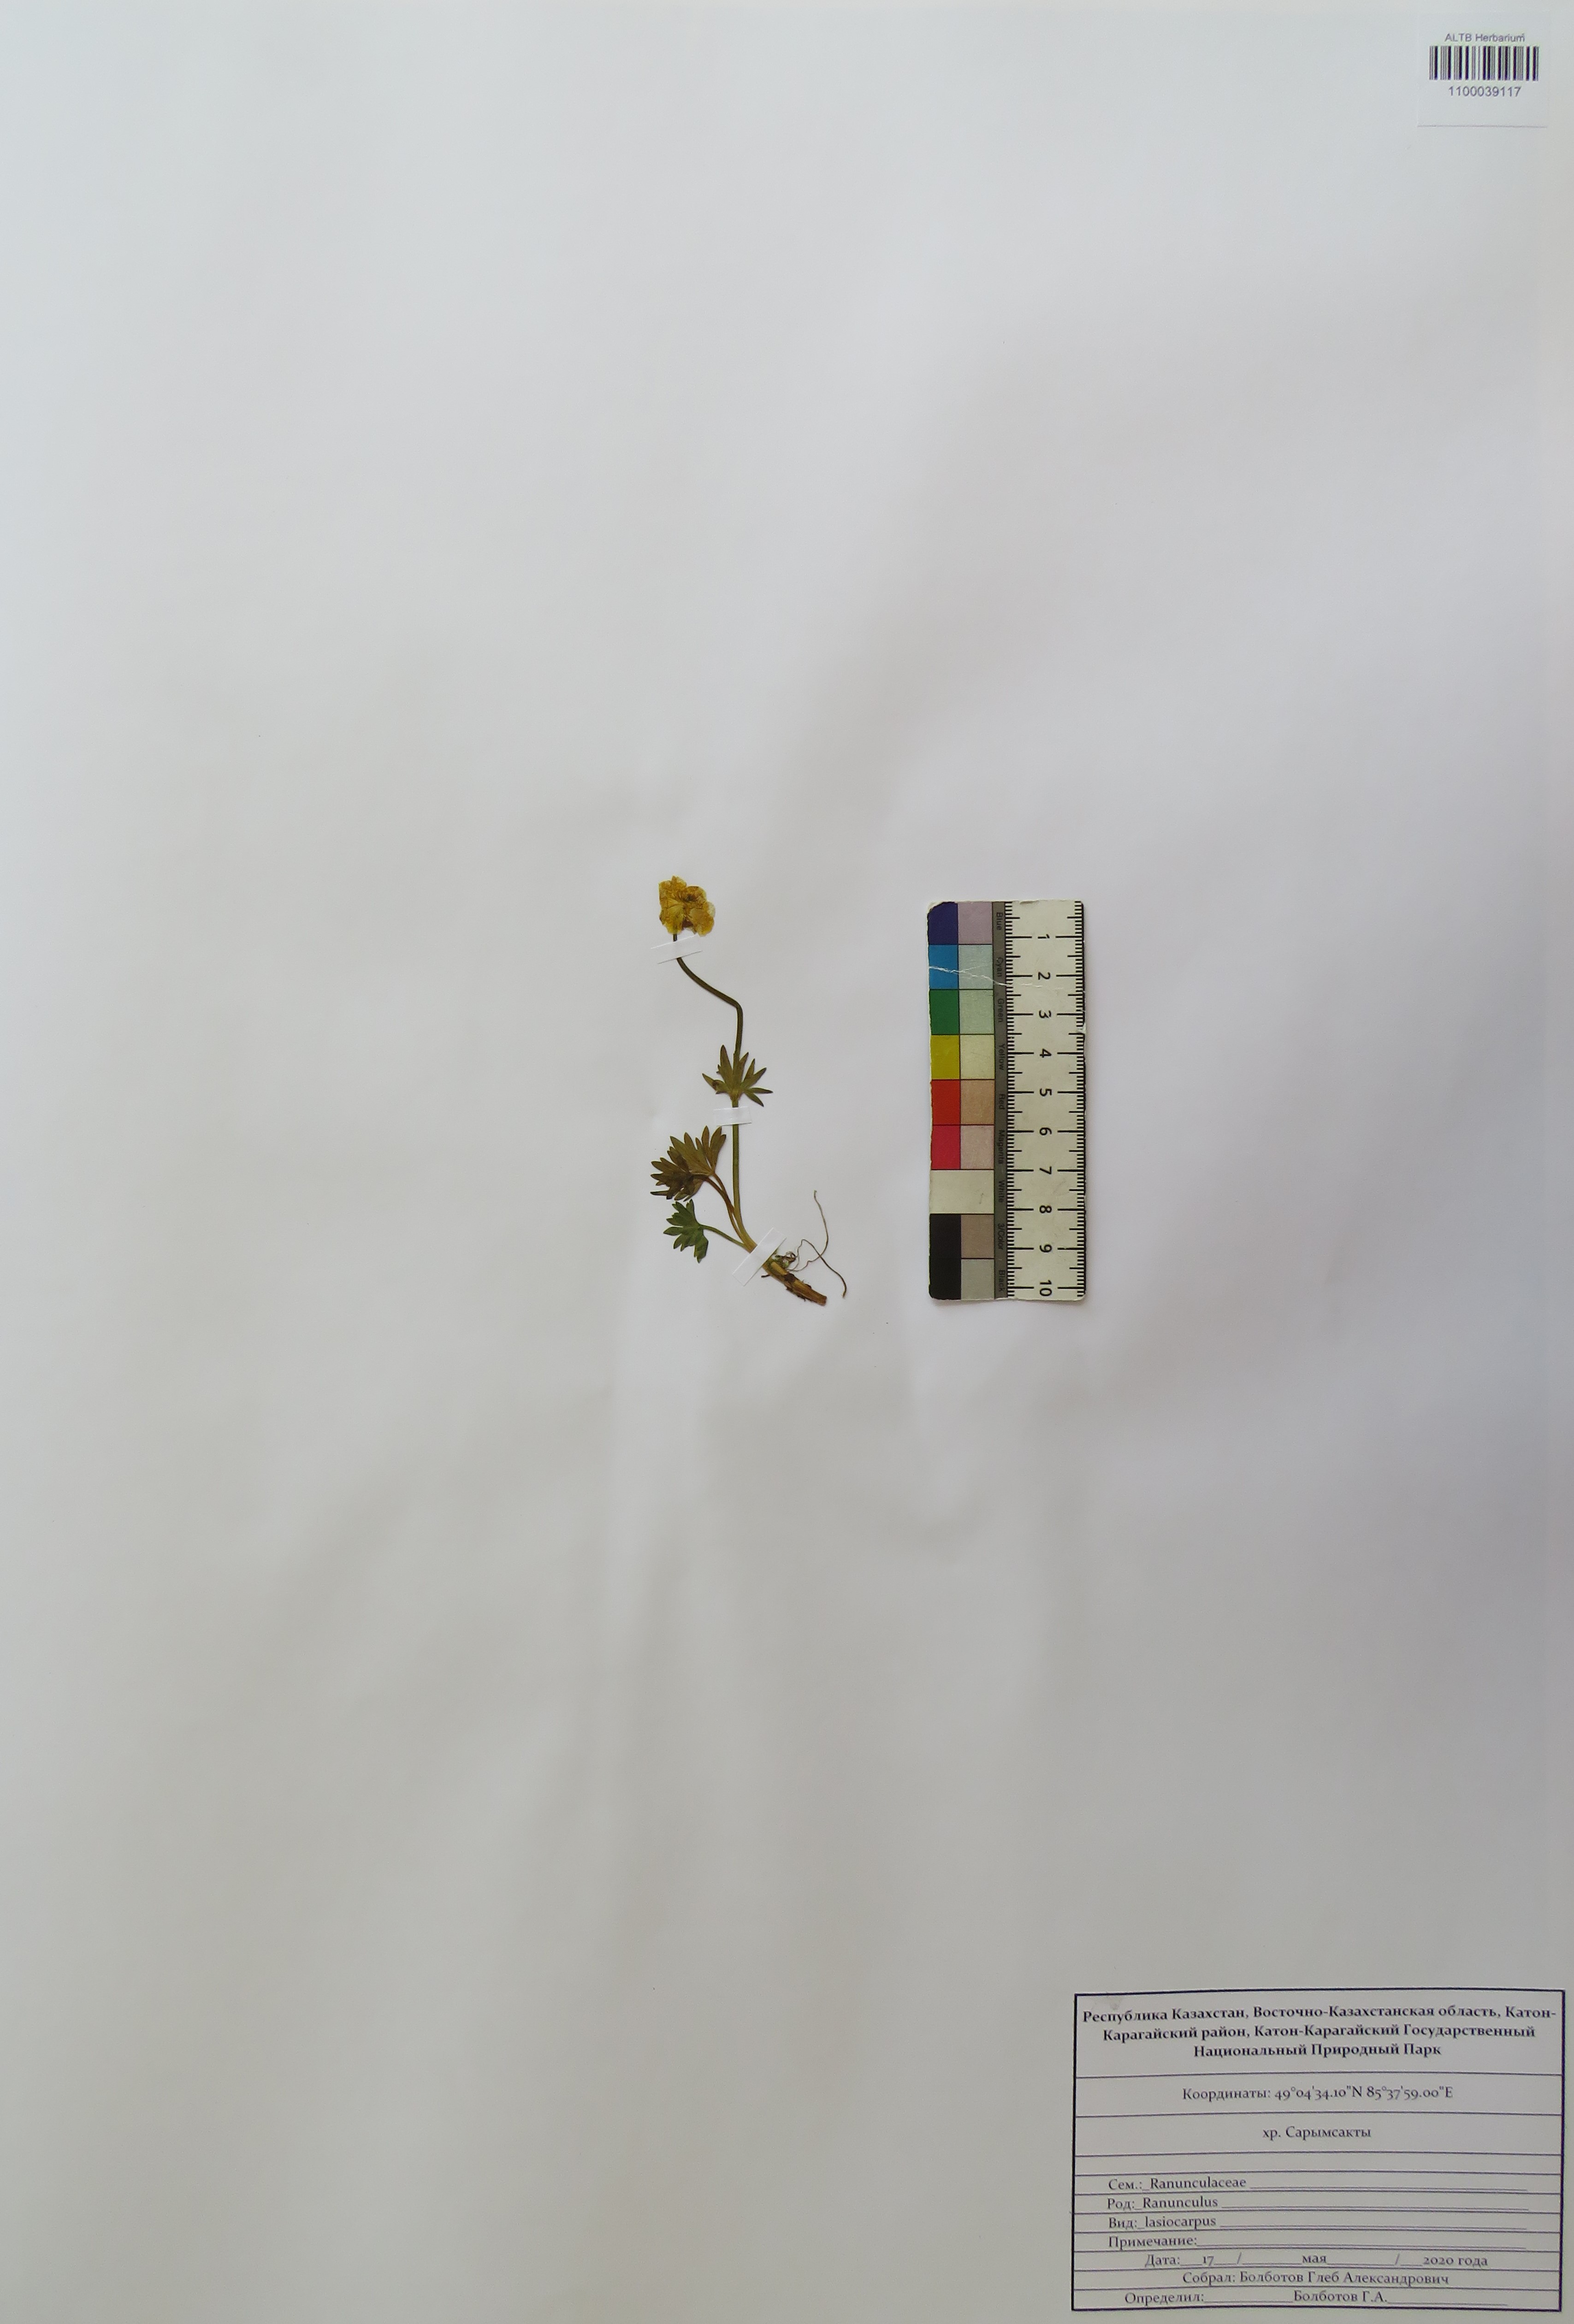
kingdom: Plantae
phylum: Tracheophyta
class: Magnoliopsida
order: Ranunculales
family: Ranunculaceae
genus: Ranunculus
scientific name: Ranunculus lasiocarpus
